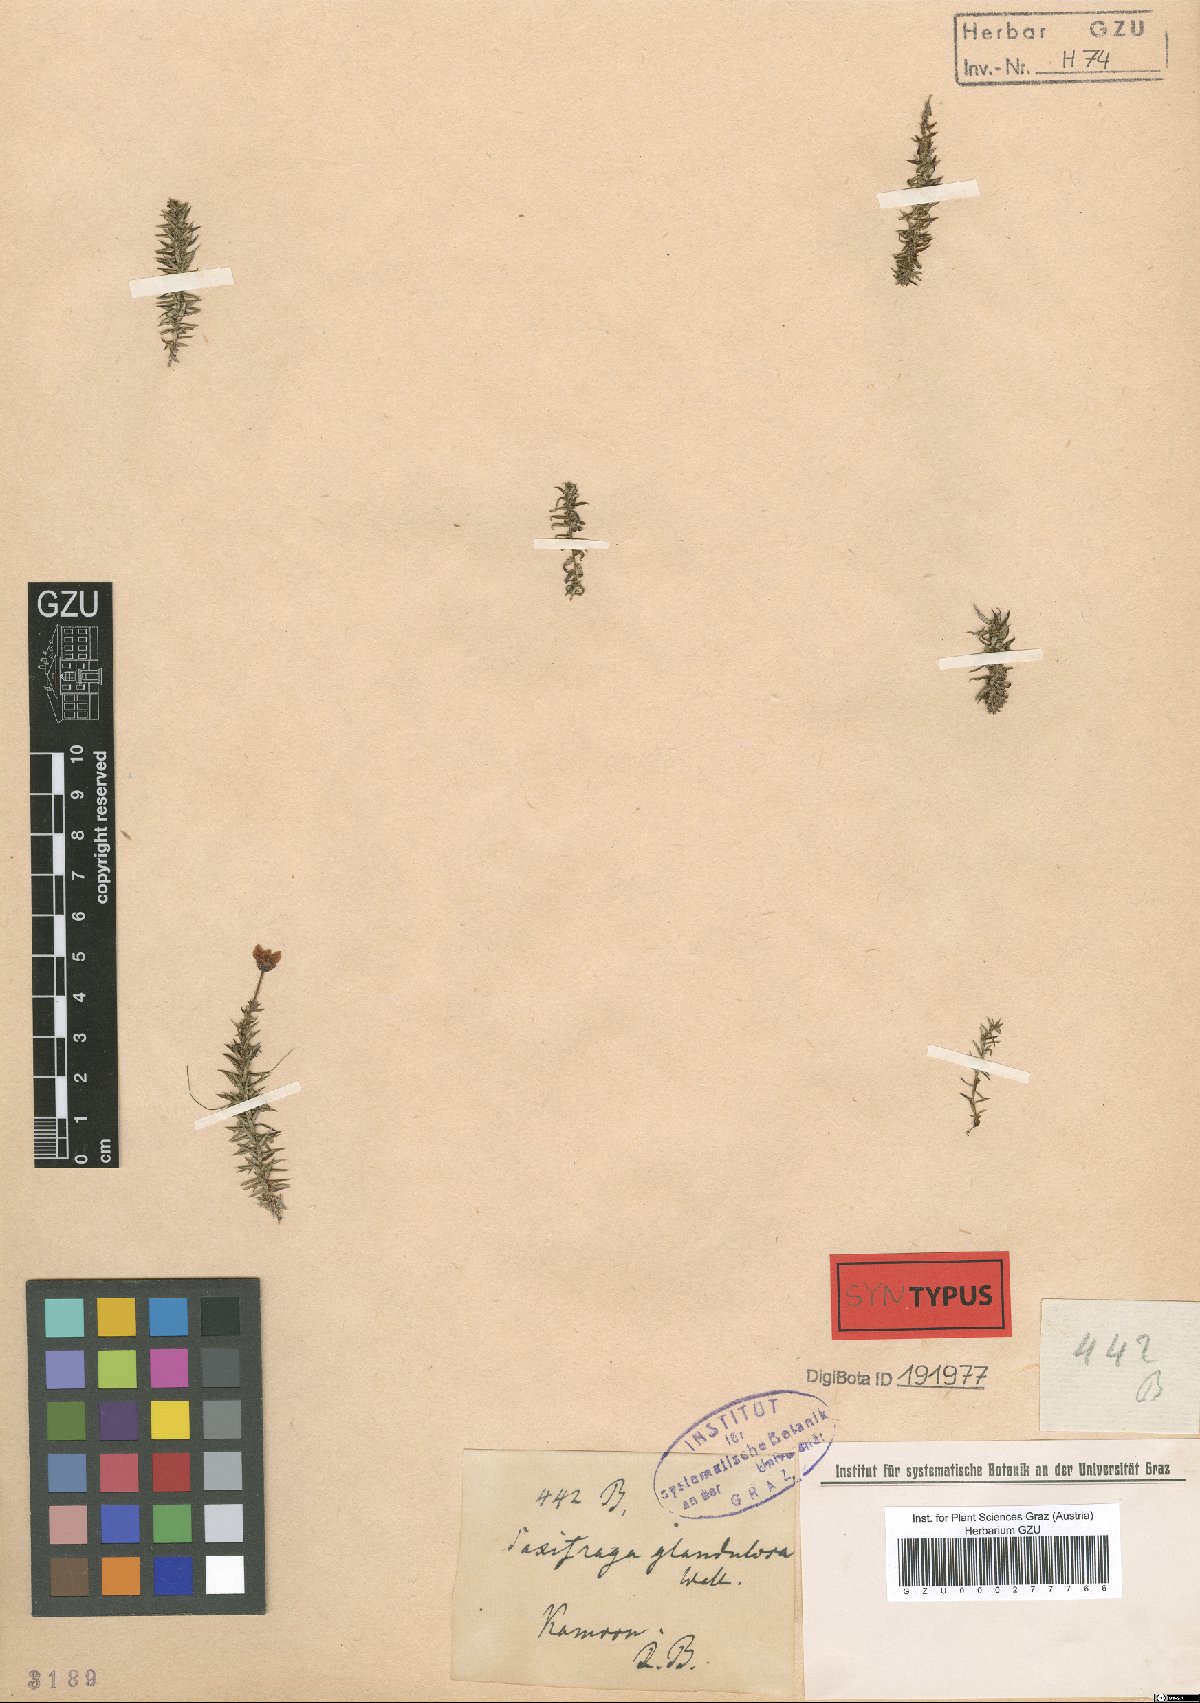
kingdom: Plantae
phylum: Tracheophyta
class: Magnoliopsida
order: Saxifragales
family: Saxifragaceae
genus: Saxifraga
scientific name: Saxifraga bronchialis
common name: Matted saxifrage
